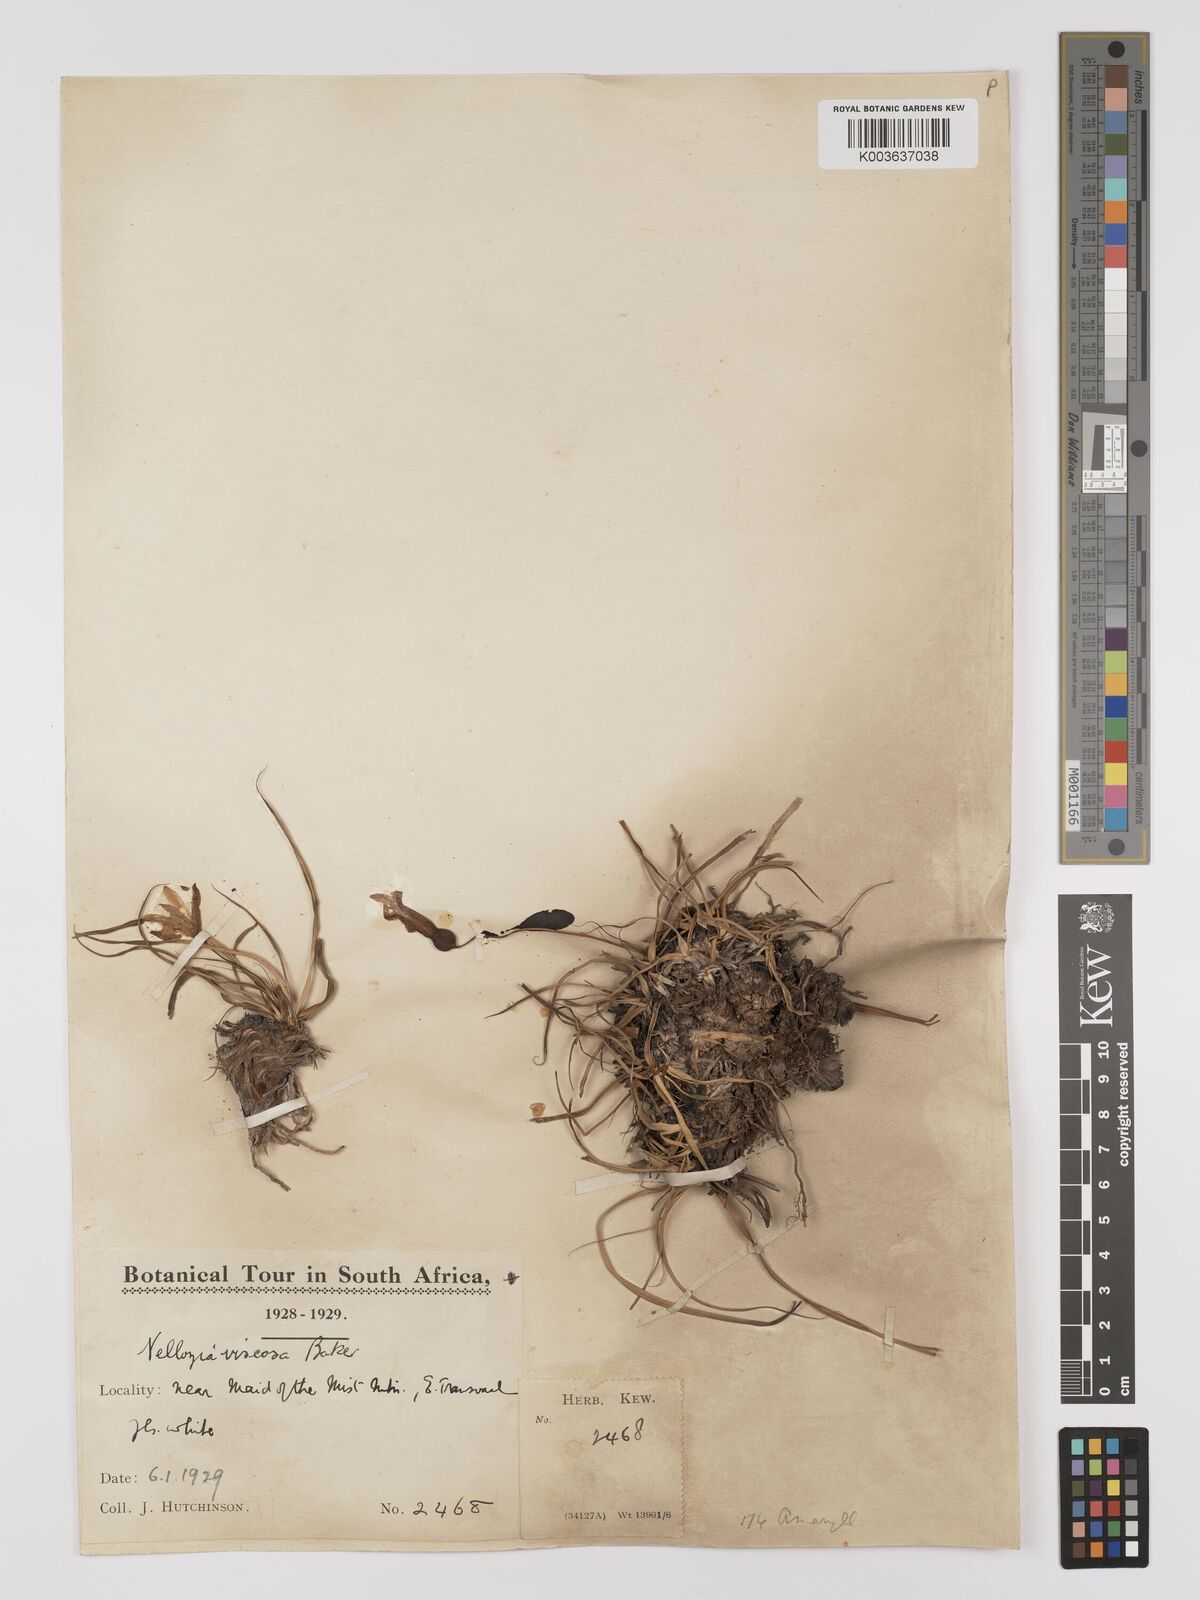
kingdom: Plantae
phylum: Tracheophyta
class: Liliopsida
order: Pandanales
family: Velloziaceae
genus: Xerophyta
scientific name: Xerophyta viscosa
